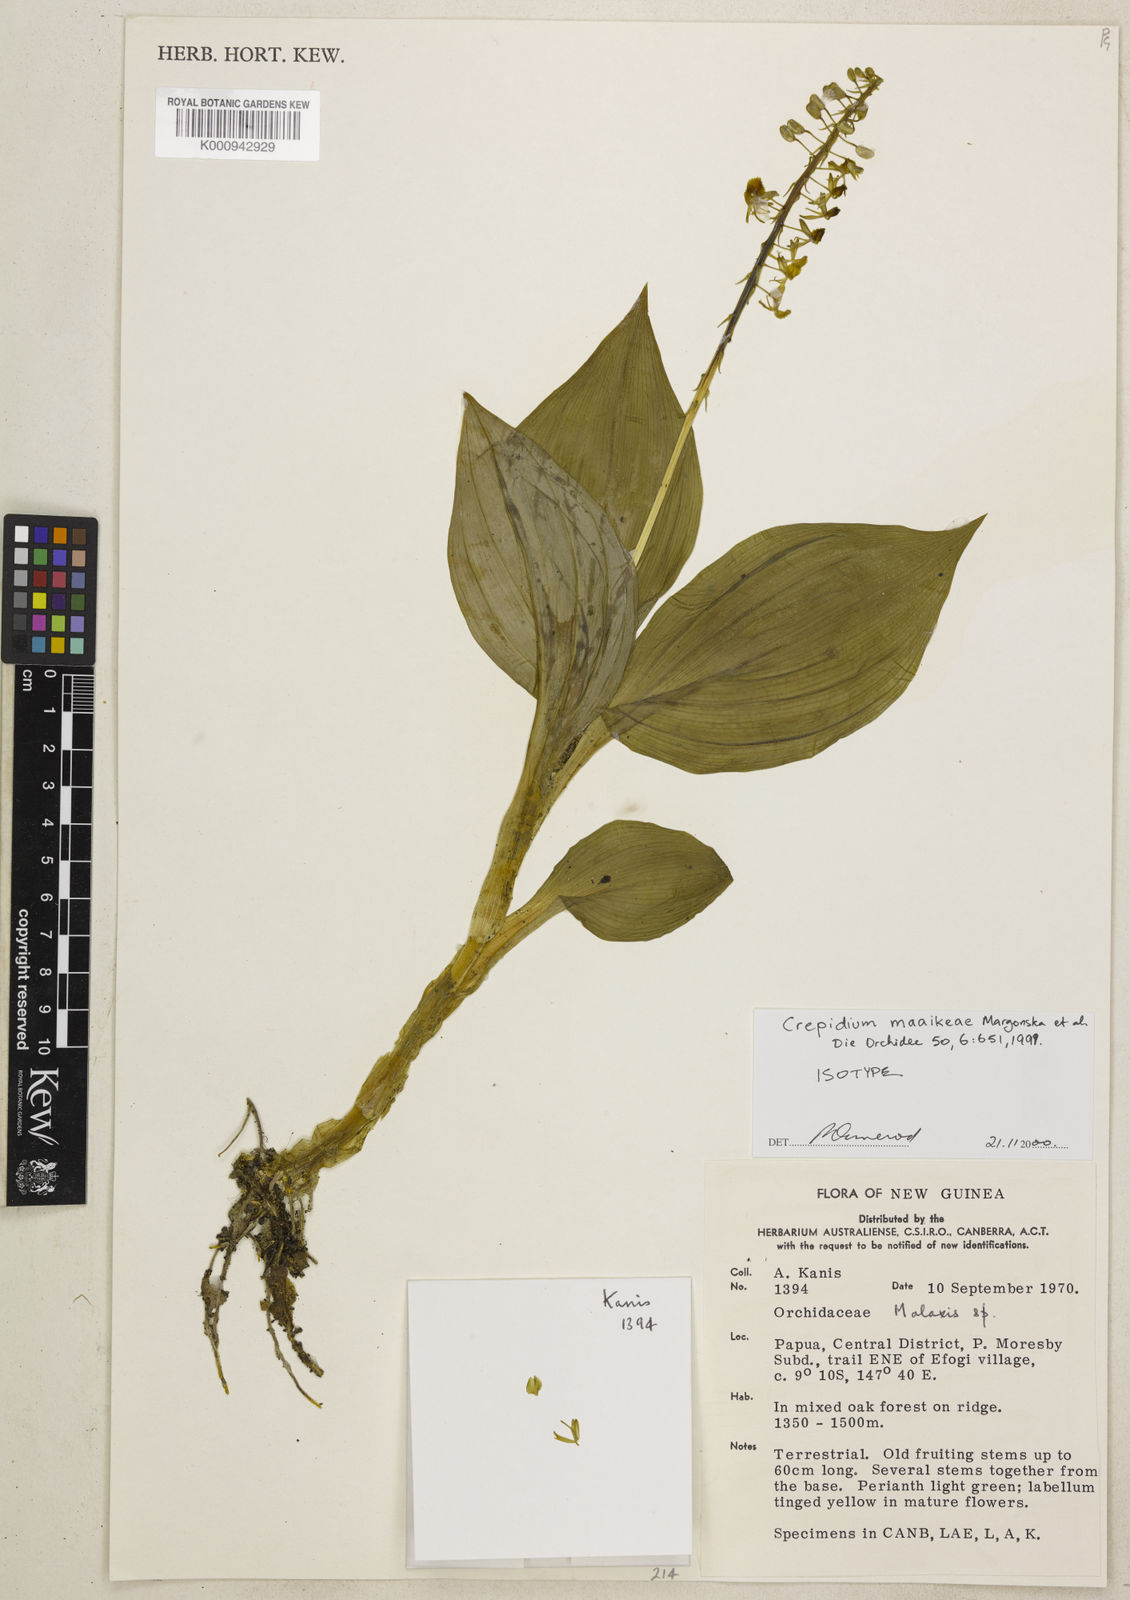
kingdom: Plantae
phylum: Tracheophyta
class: Liliopsida
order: Asparagales
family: Orchidaceae
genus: Crepidium
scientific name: Crepidium maaikeae
